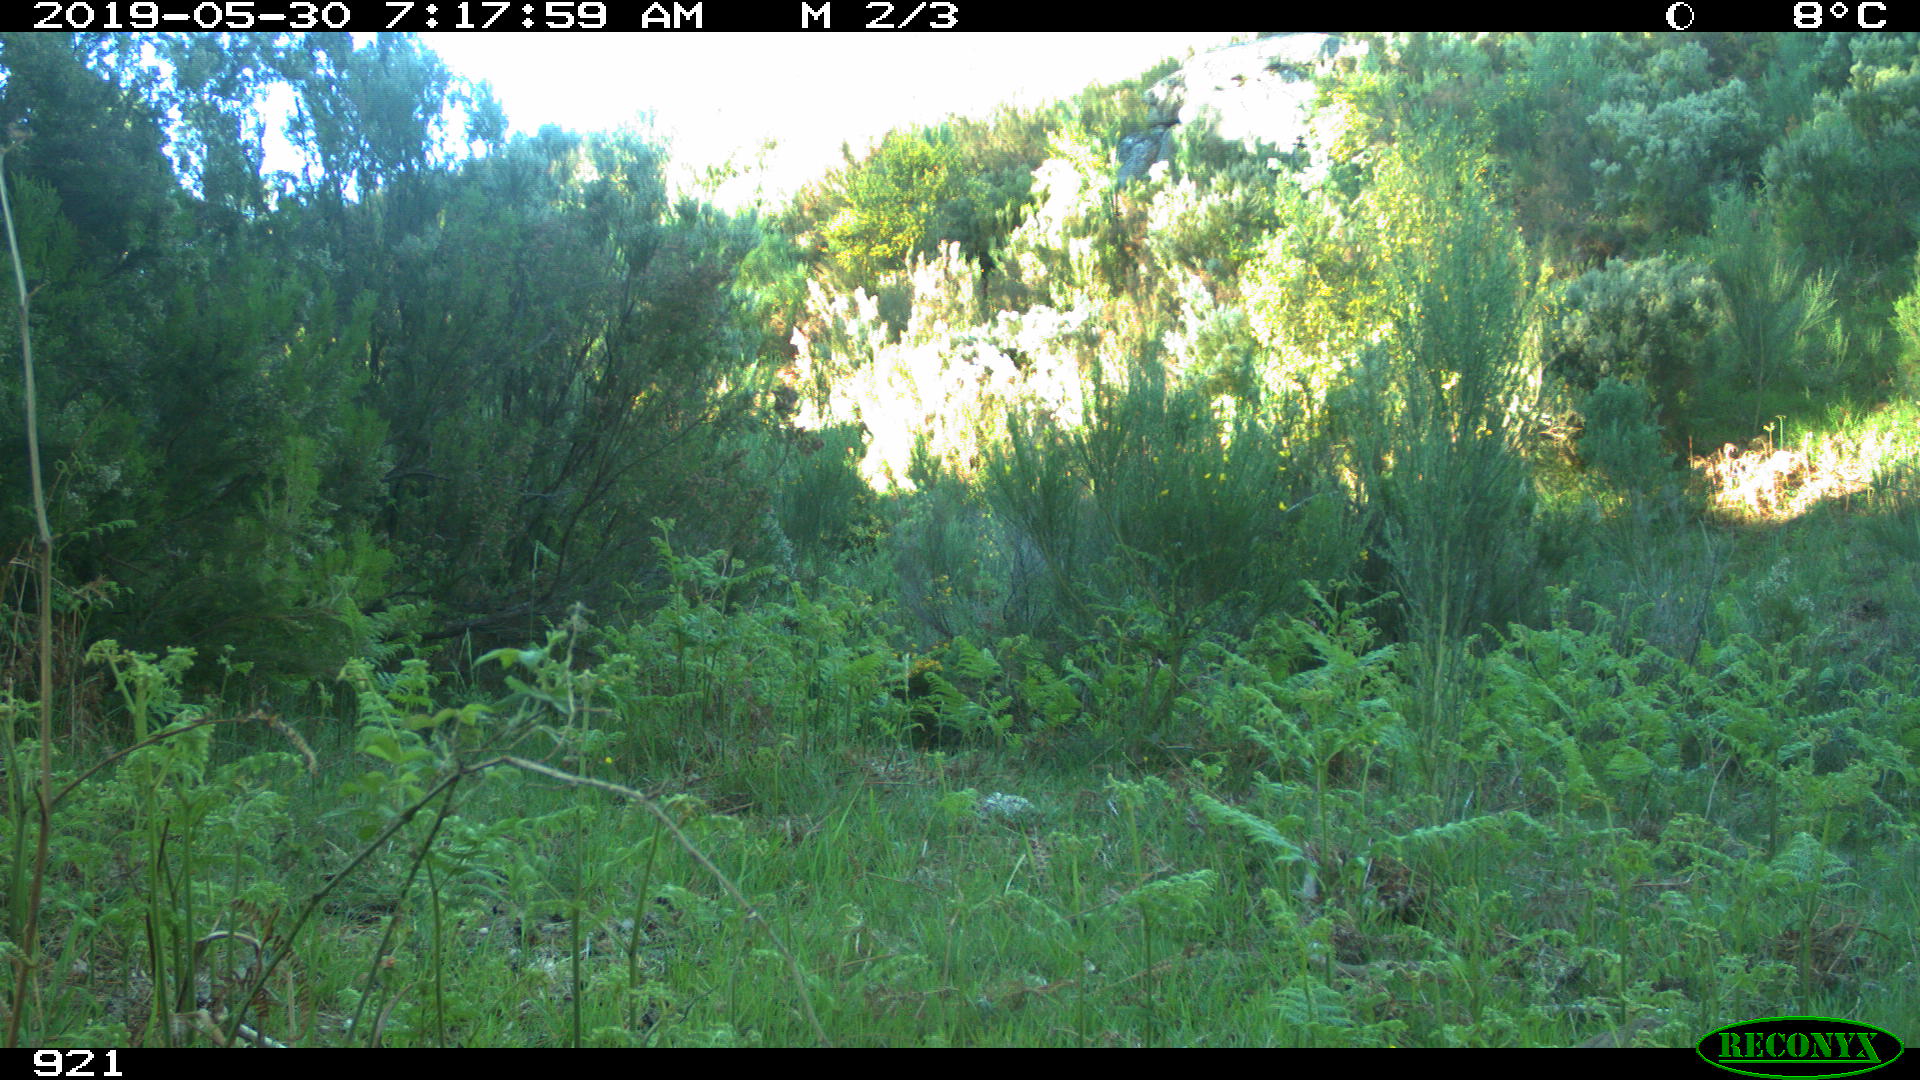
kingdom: Animalia
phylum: Chordata
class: Mammalia
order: Artiodactyla
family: Cervidae
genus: Capreolus
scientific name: Capreolus capreolus
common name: Western roe deer
